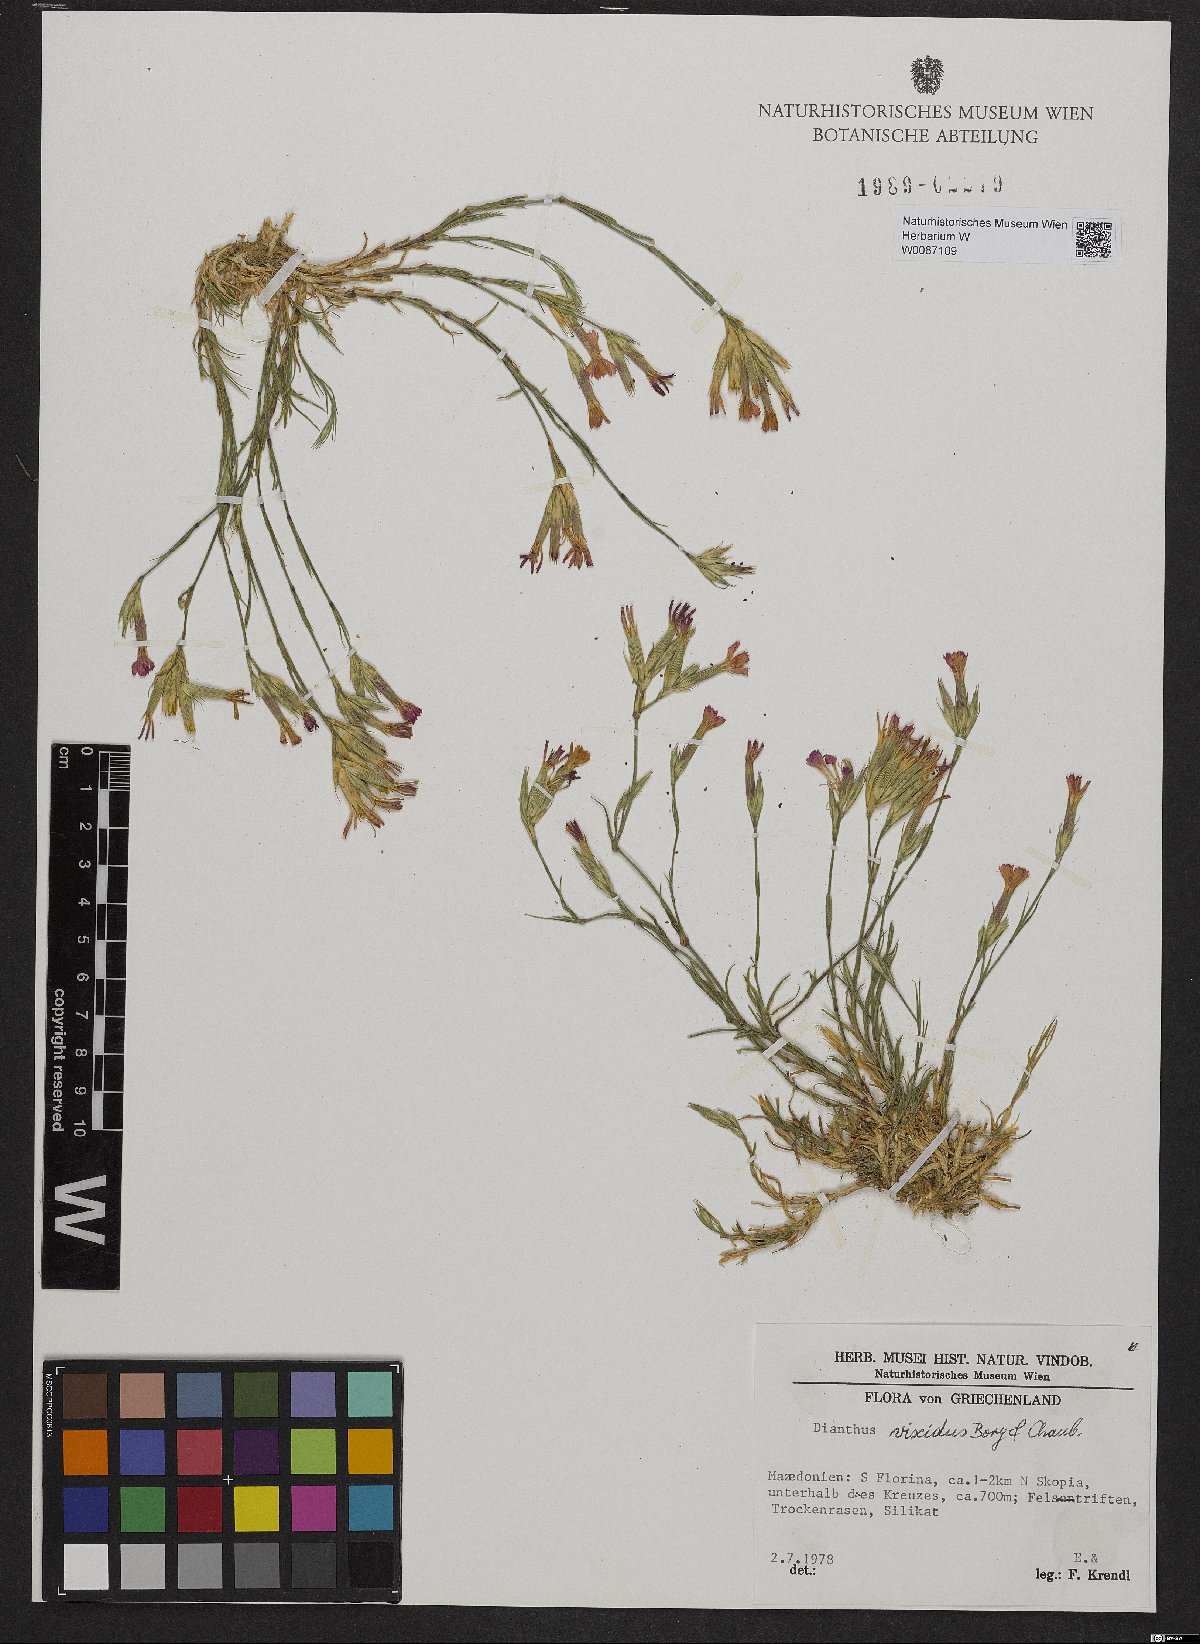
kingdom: Plantae
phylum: Tracheophyta
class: Magnoliopsida
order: Caryophyllales
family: Caryophyllaceae
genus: Dianthus
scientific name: Dianthus viscidus
